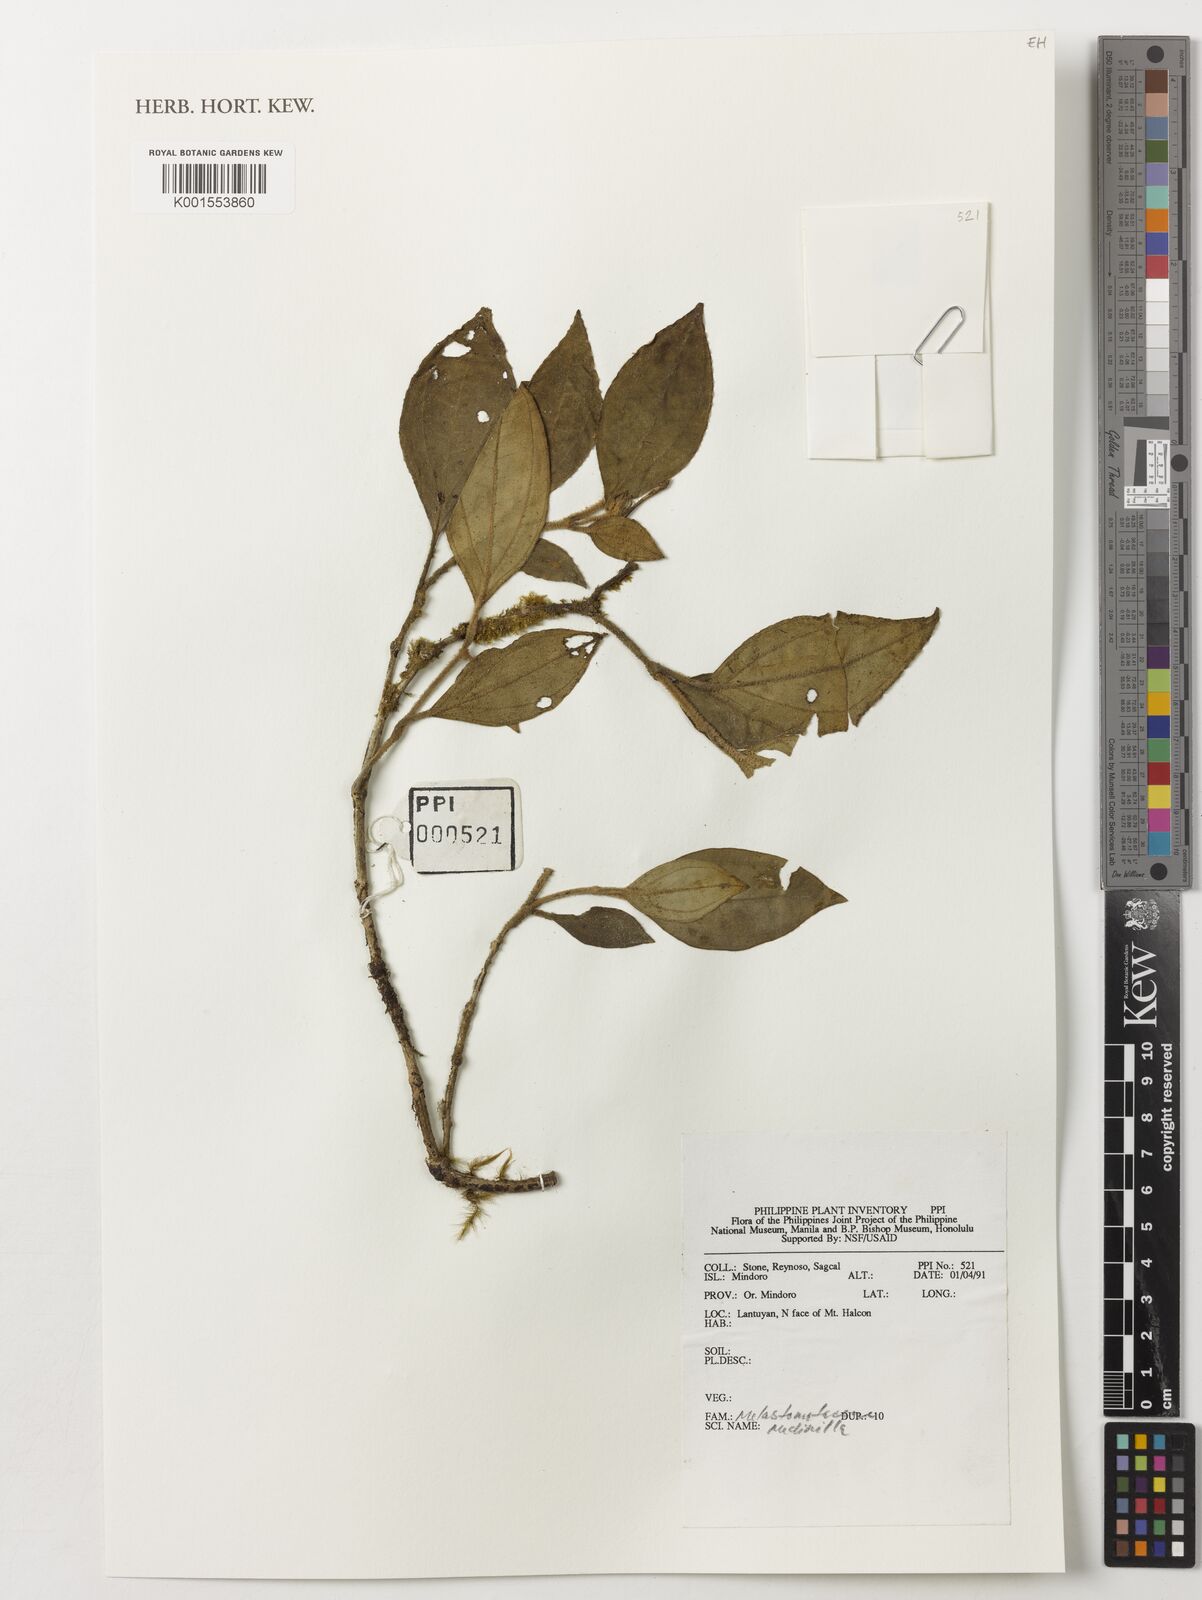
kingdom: Plantae
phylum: Tracheophyta
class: Magnoliopsida
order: Myrtales
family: Melastomataceae
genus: Medinilla
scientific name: Medinilla
